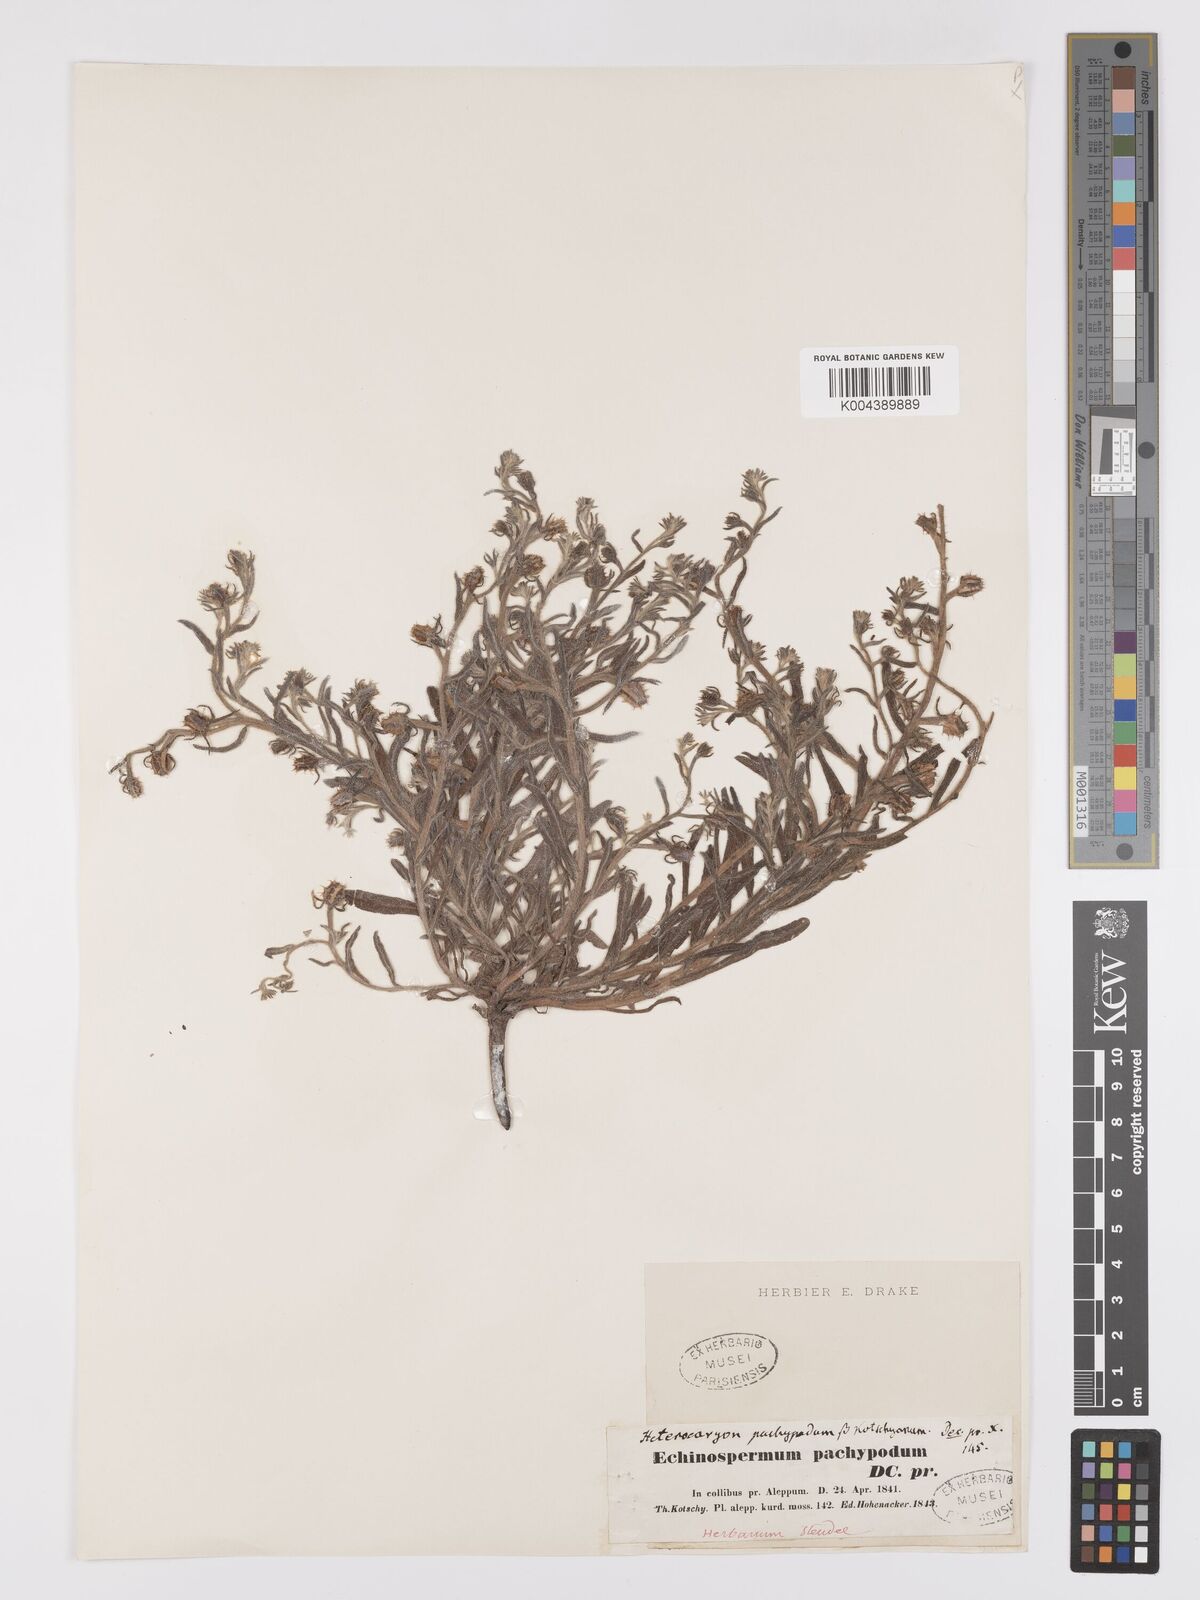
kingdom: Plantae
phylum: Tracheophyta
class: Magnoliopsida
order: Boraginales
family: Boraginaceae
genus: Lappula
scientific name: Lappula
